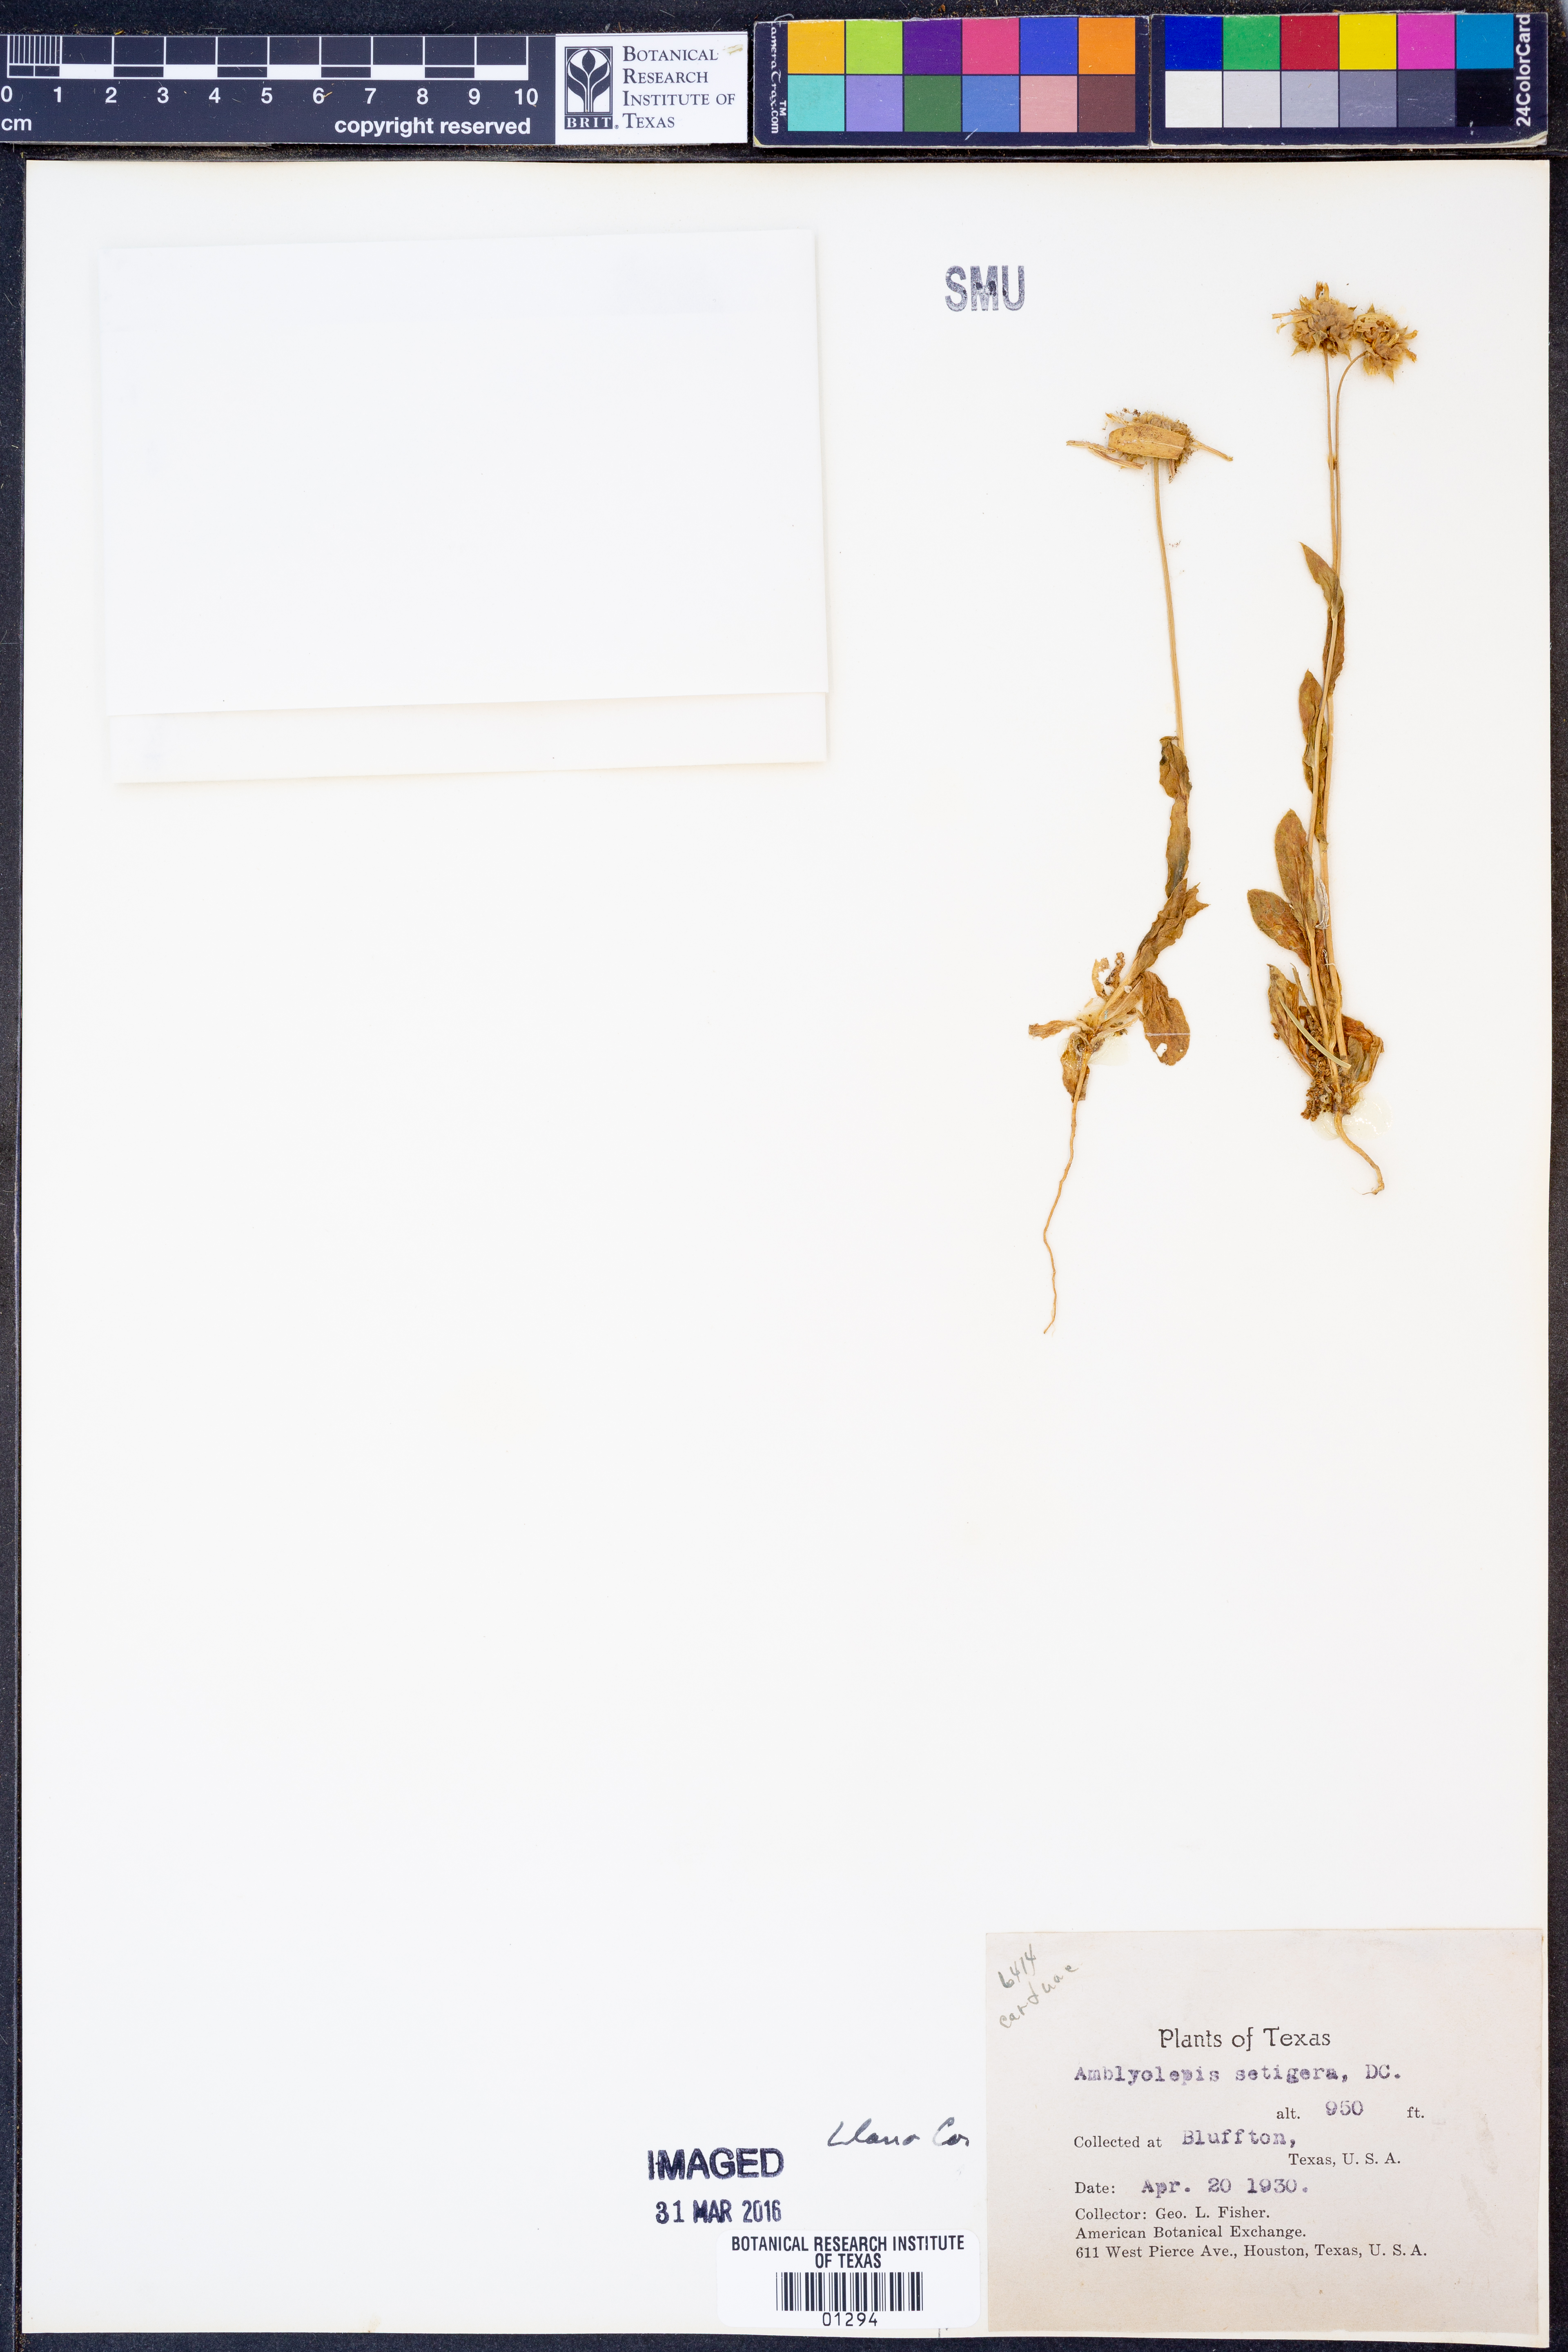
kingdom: Plantae
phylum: Tracheophyta
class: Magnoliopsida
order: Asterales
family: Asteraceae
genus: Amblyolepis
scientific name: Amblyolepis setigera
